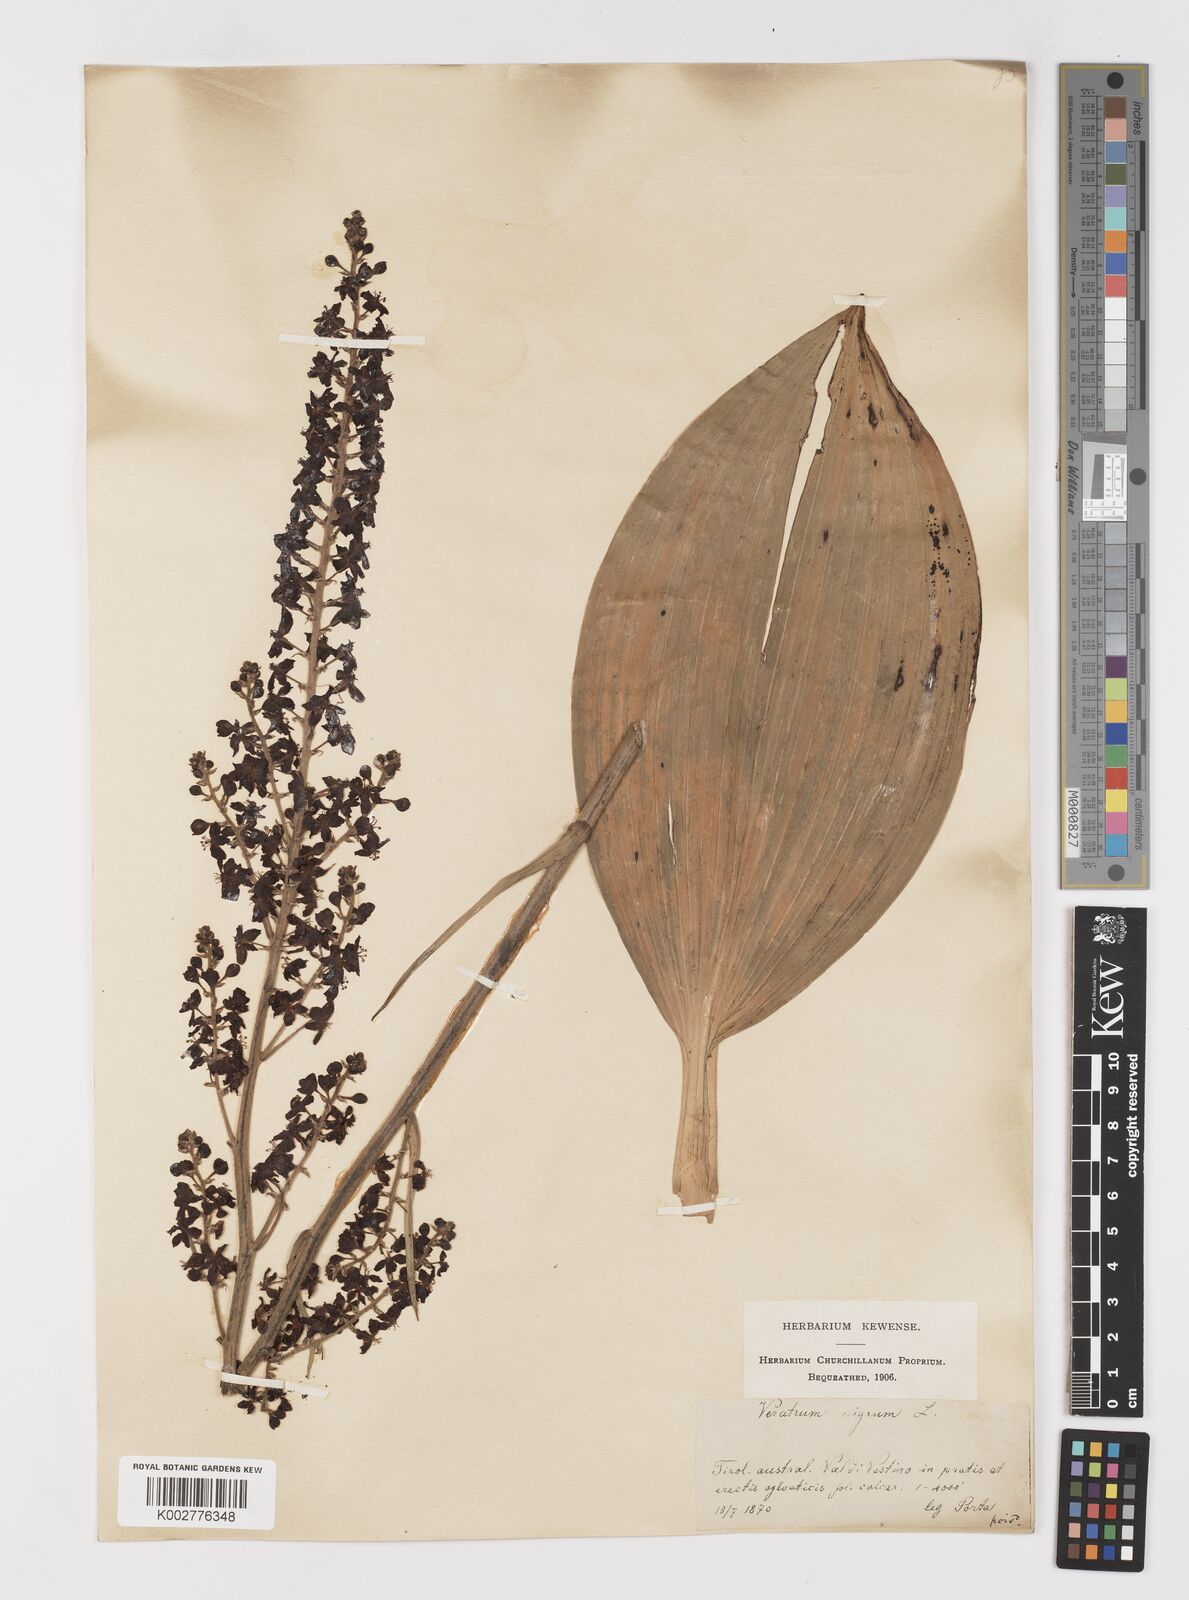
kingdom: Plantae
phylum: Tracheophyta
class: Liliopsida
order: Liliales
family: Melanthiaceae
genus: Veratrum
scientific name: Veratrum nigrum
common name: Black veratrum
